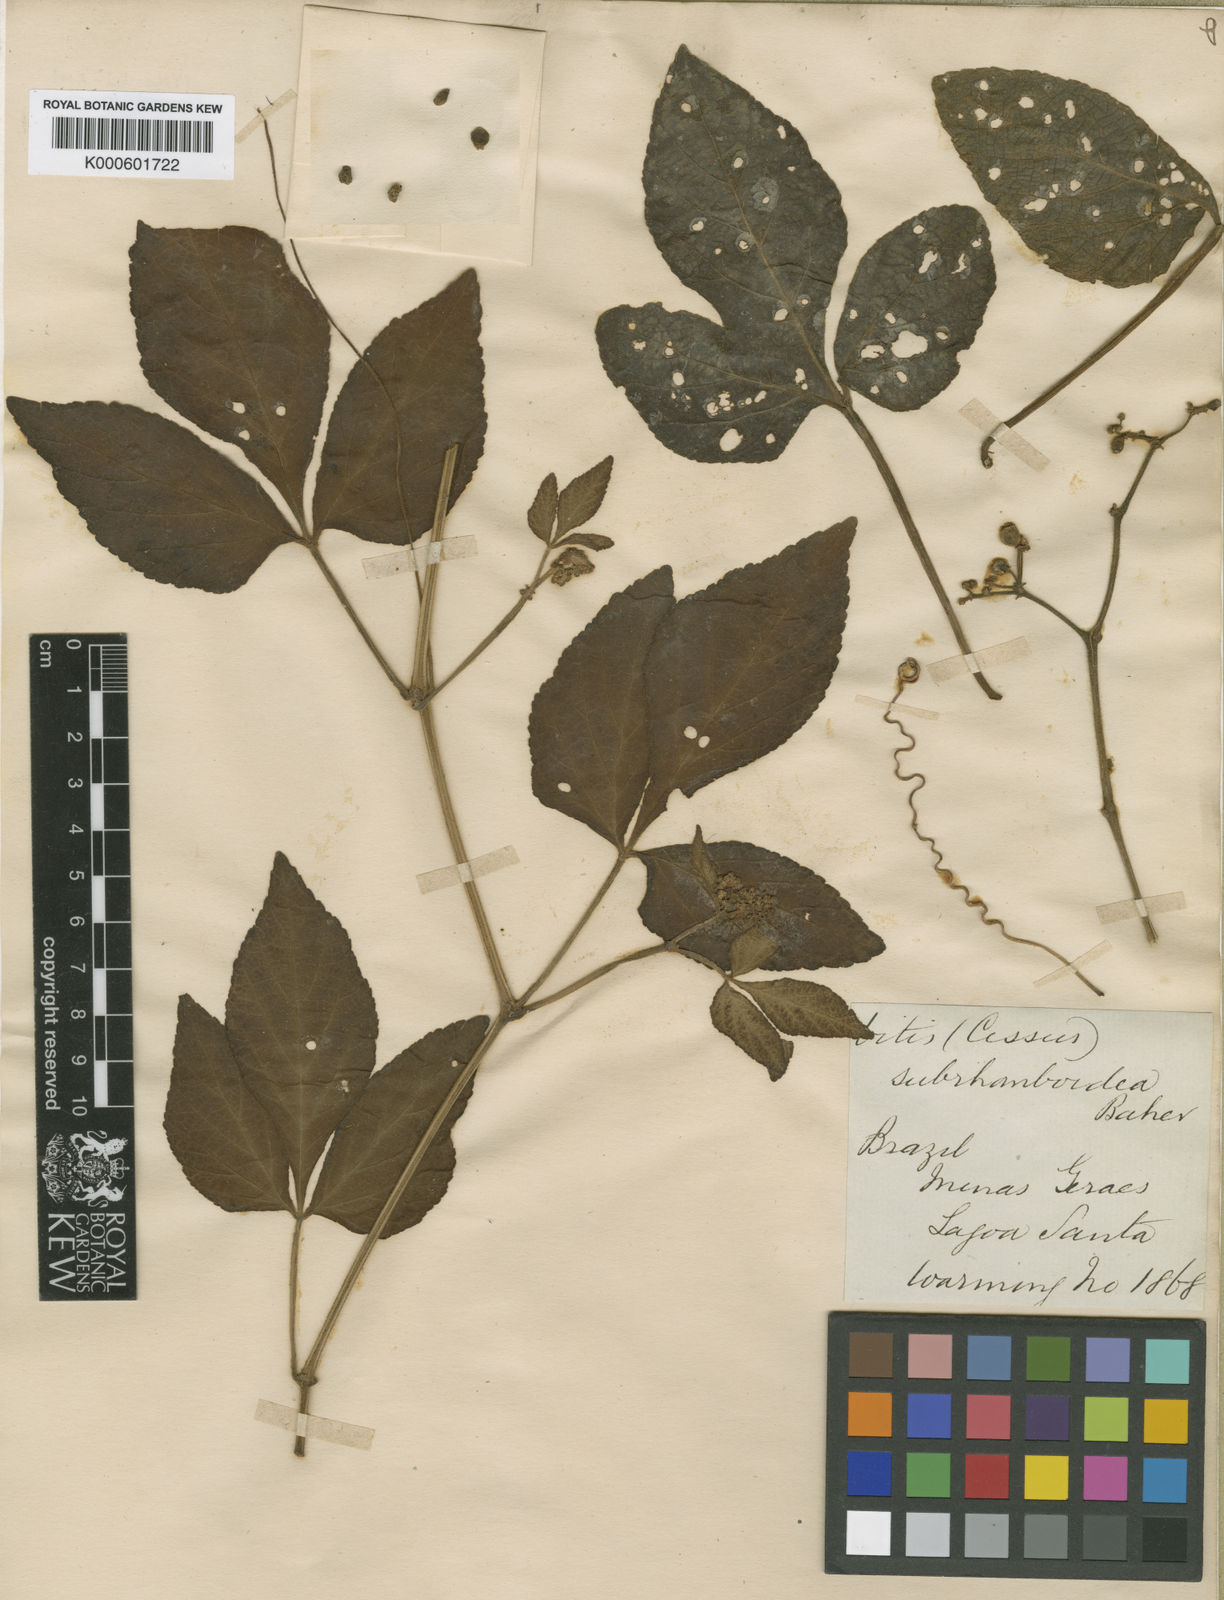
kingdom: Plantae
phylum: Tracheophyta
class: Magnoliopsida
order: Vitales
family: Vitaceae
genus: Cissus
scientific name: Cissus subrhomboidea
